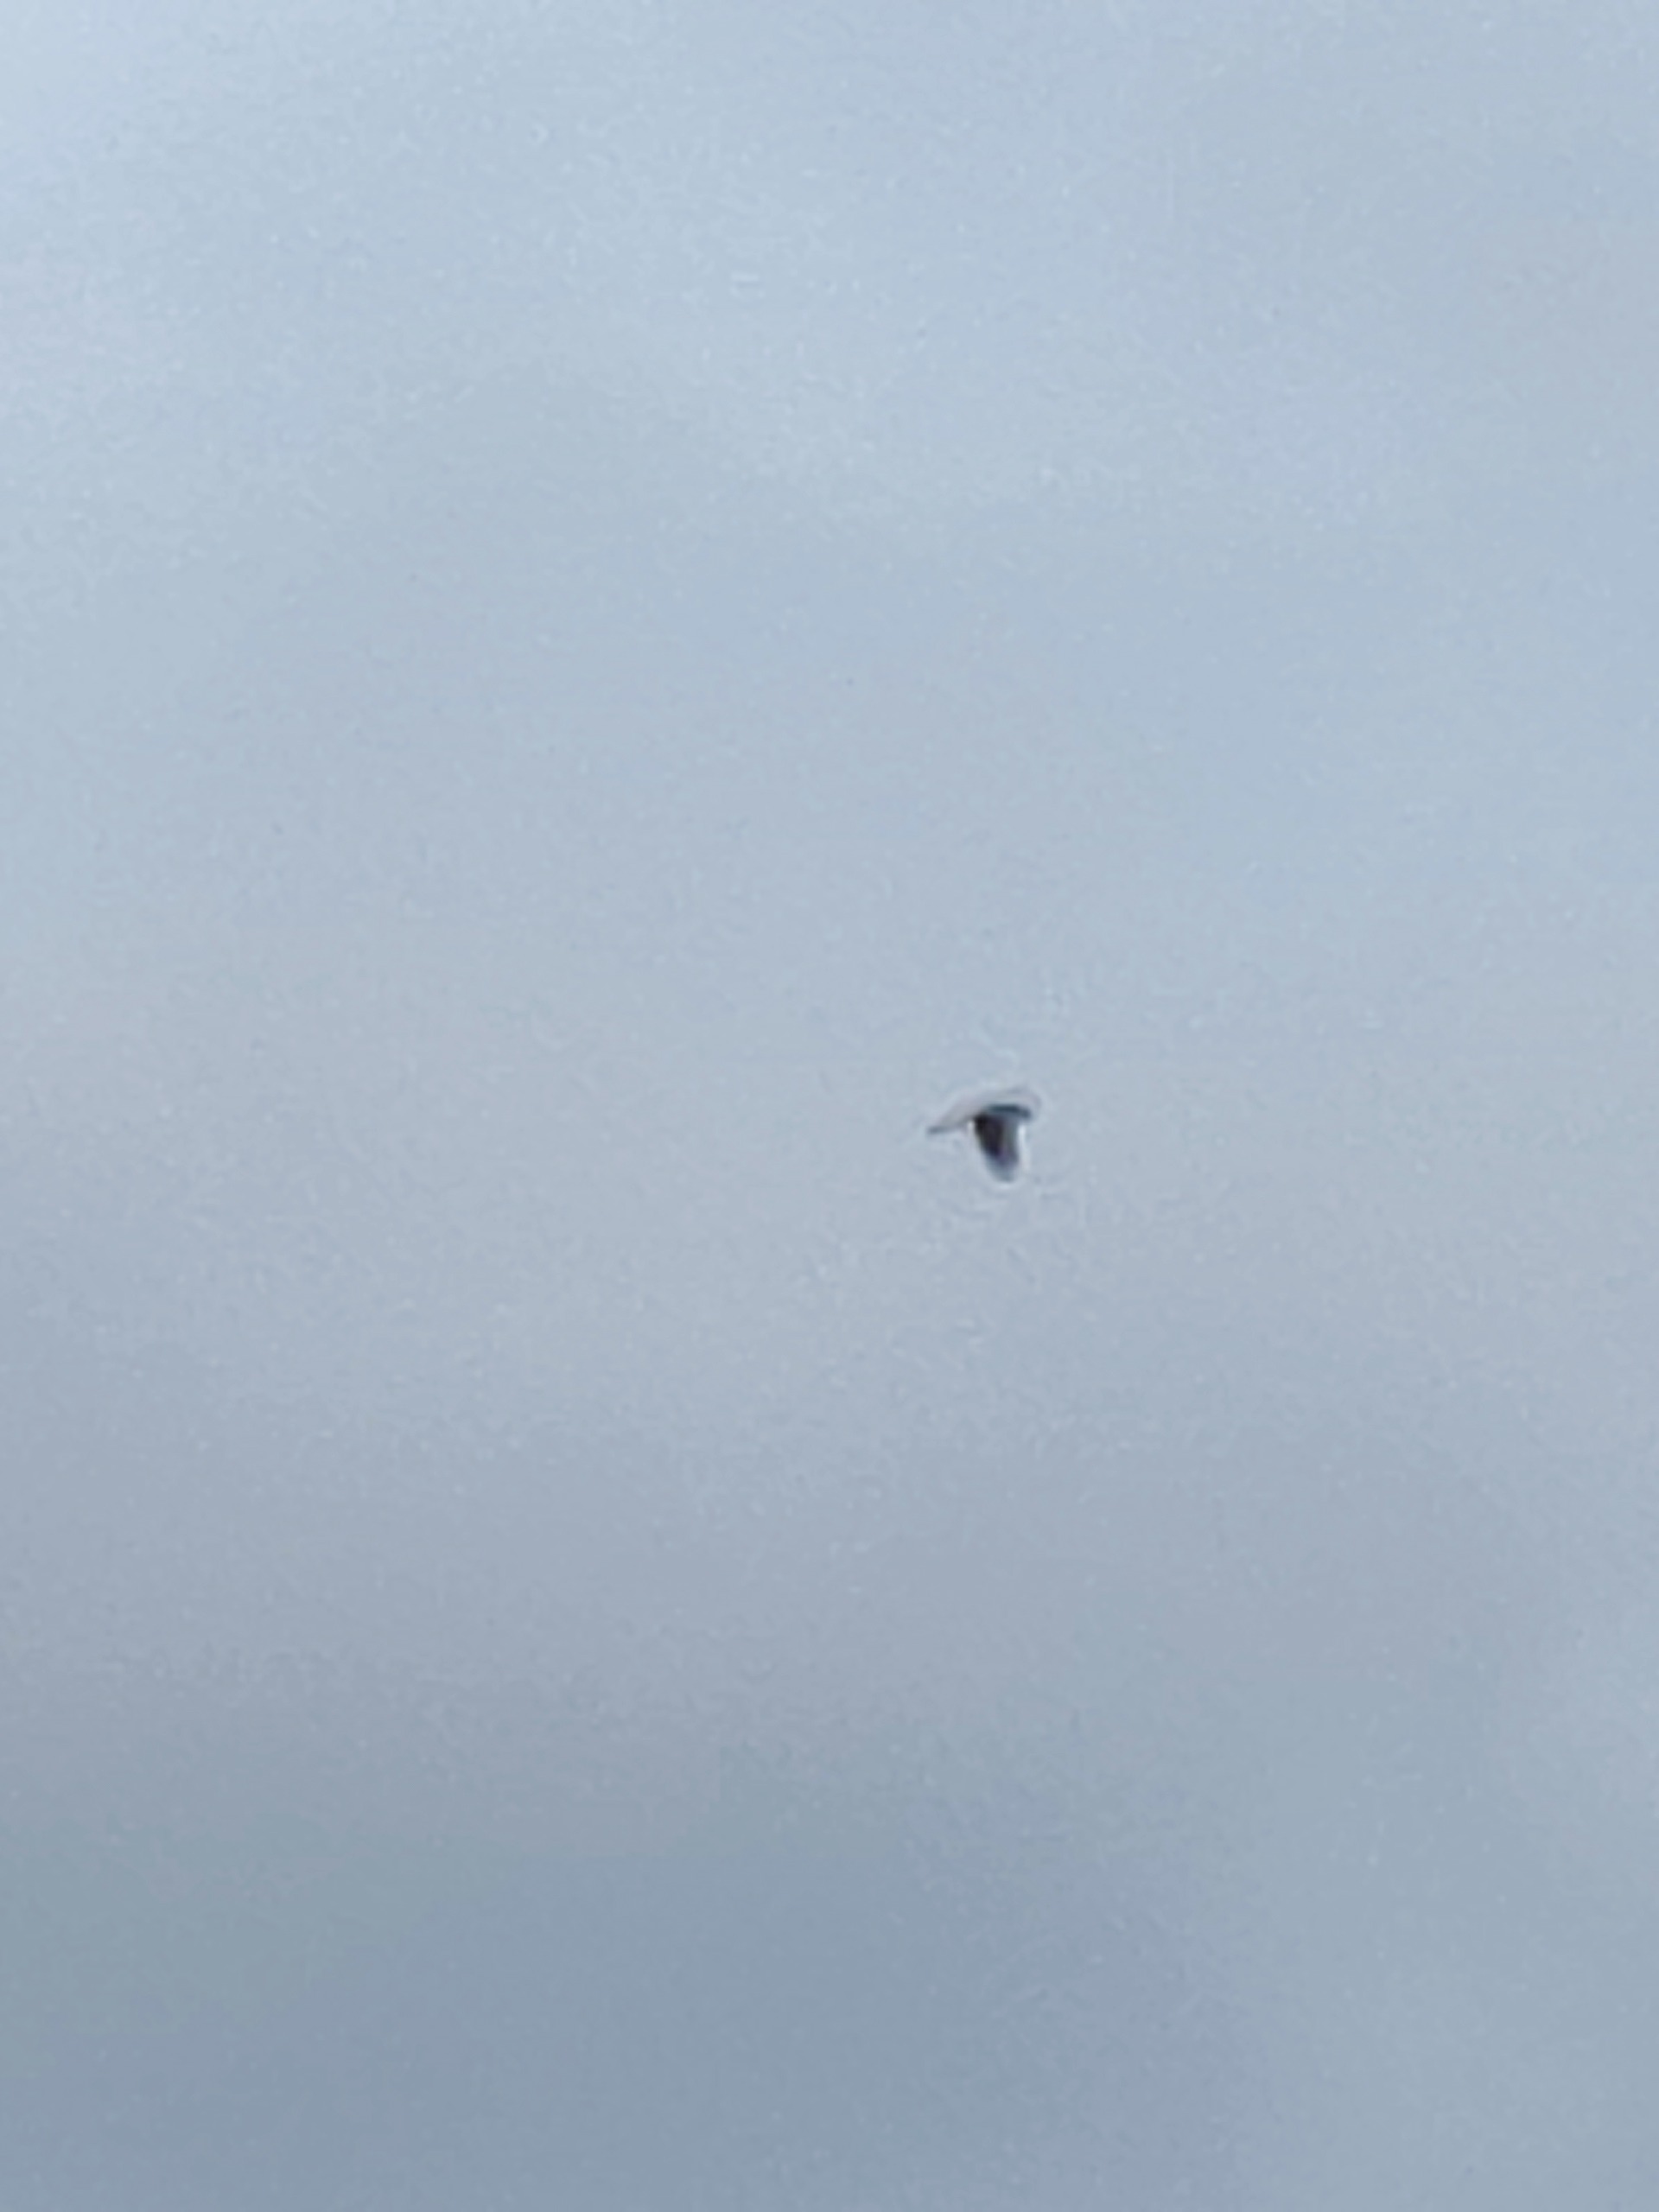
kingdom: Animalia
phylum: Chordata
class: Aves
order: Falconiformes
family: Falconidae
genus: Falco
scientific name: Falco tinnunculus
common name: Tårnfalk
